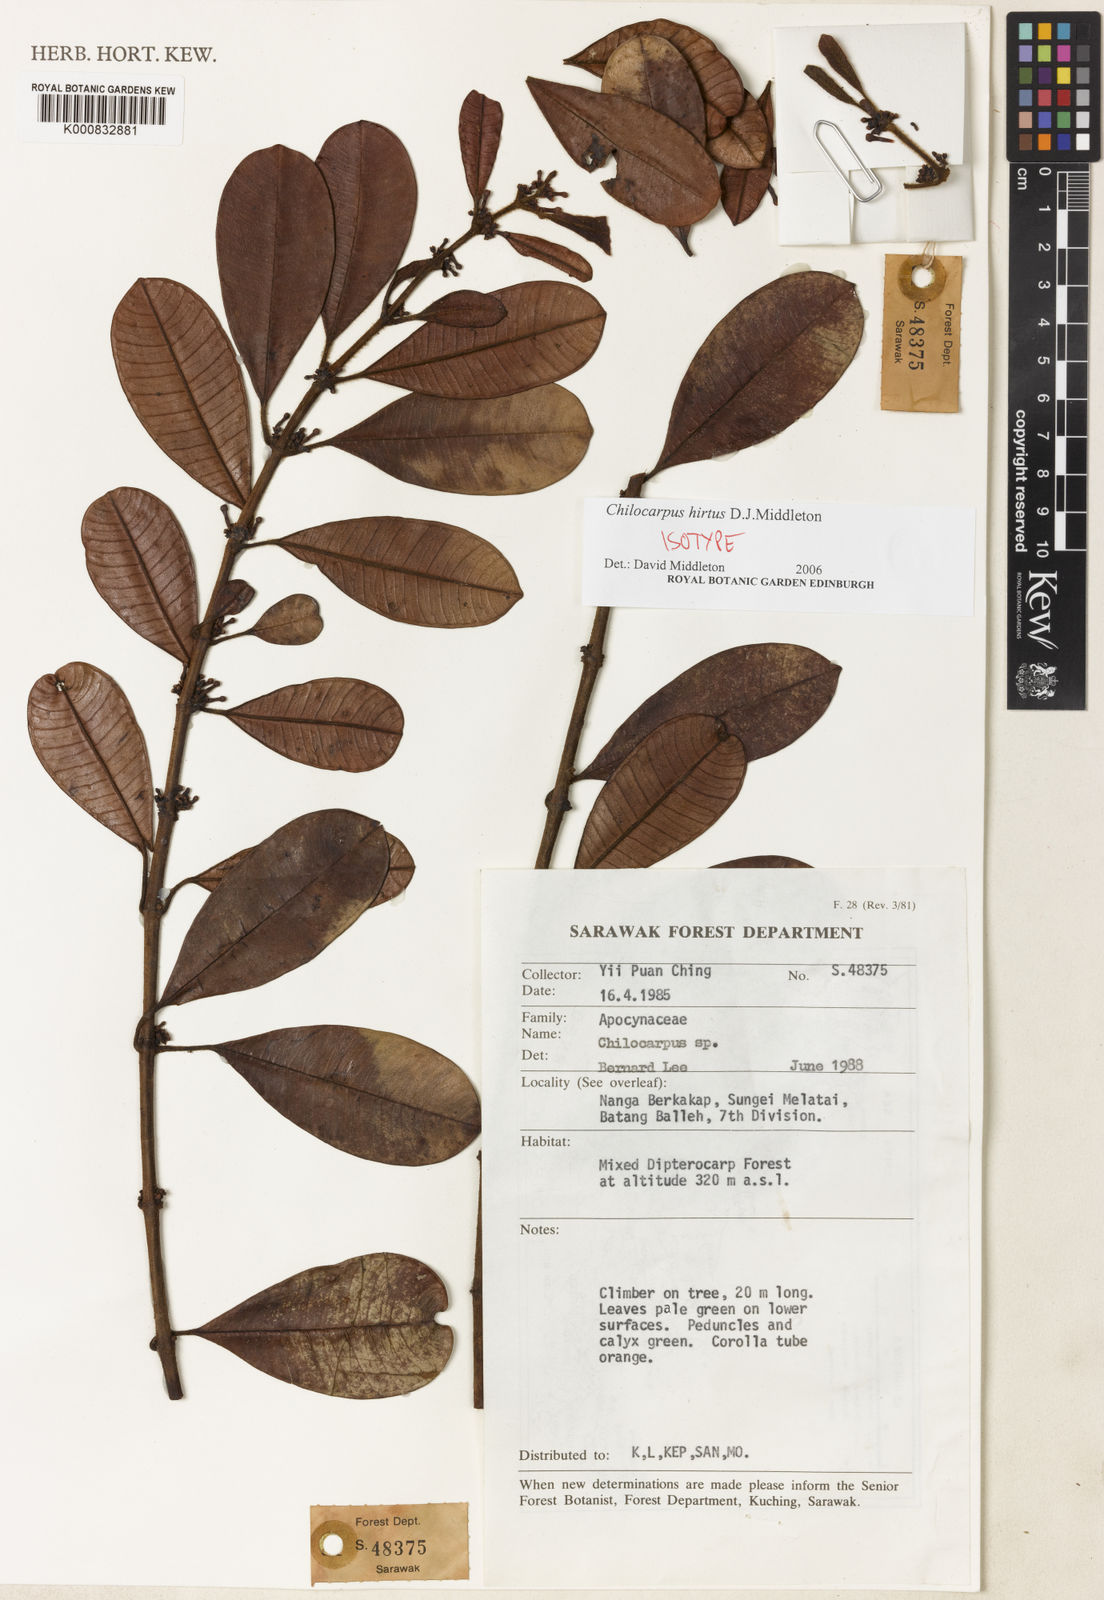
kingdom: Plantae
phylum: Tracheophyta
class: Magnoliopsida
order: Gentianales
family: Apocynaceae
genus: Chilocarpus
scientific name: Chilocarpus hirtus
